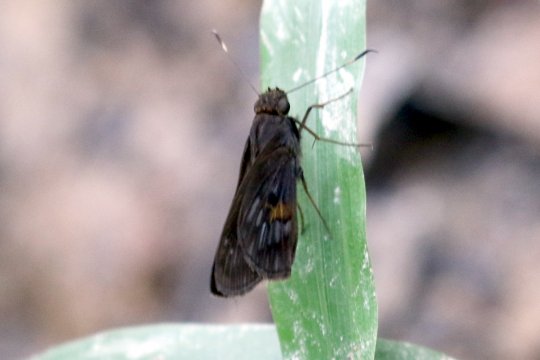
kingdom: Animalia
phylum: Arthropoda
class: Insecta
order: Lepidoptera
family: Hesperiidae
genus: Phanis
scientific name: Phanis almoda
